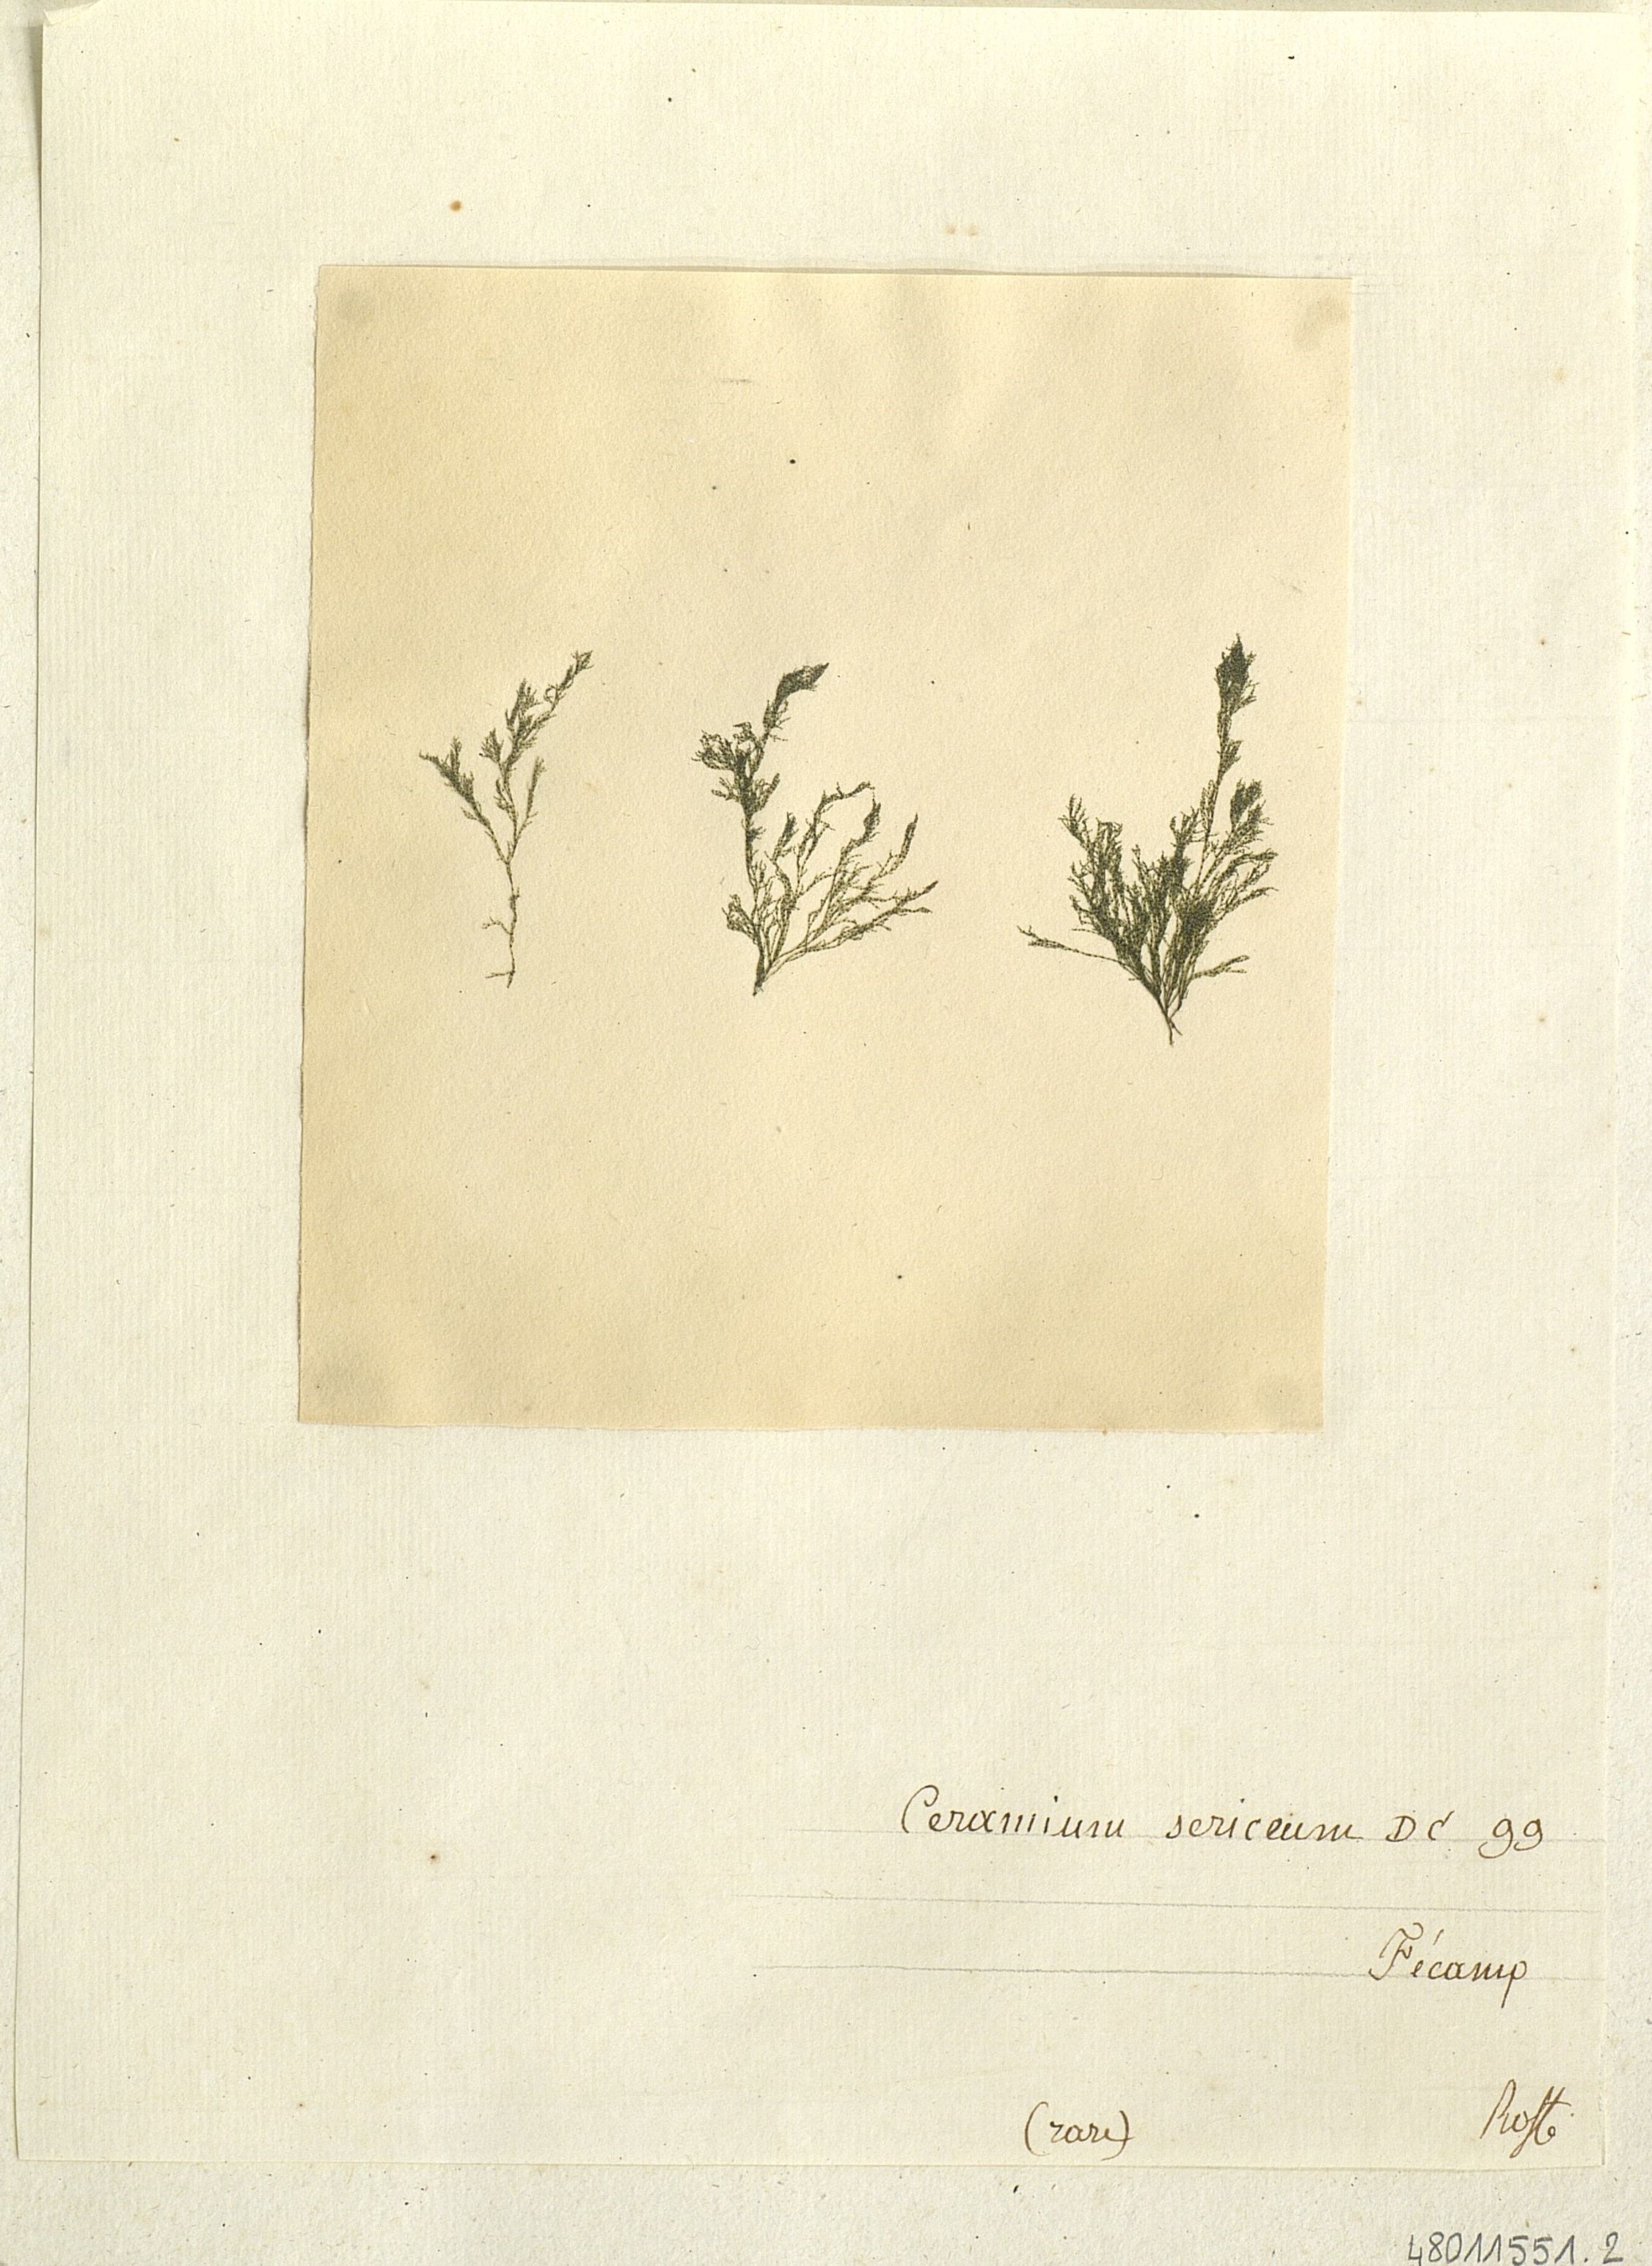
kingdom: Plantae
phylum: Rhodophyta
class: Florideophyceae
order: Ceramiales
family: Ceramiaceae
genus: Ceramium
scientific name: Ceramium strictum
